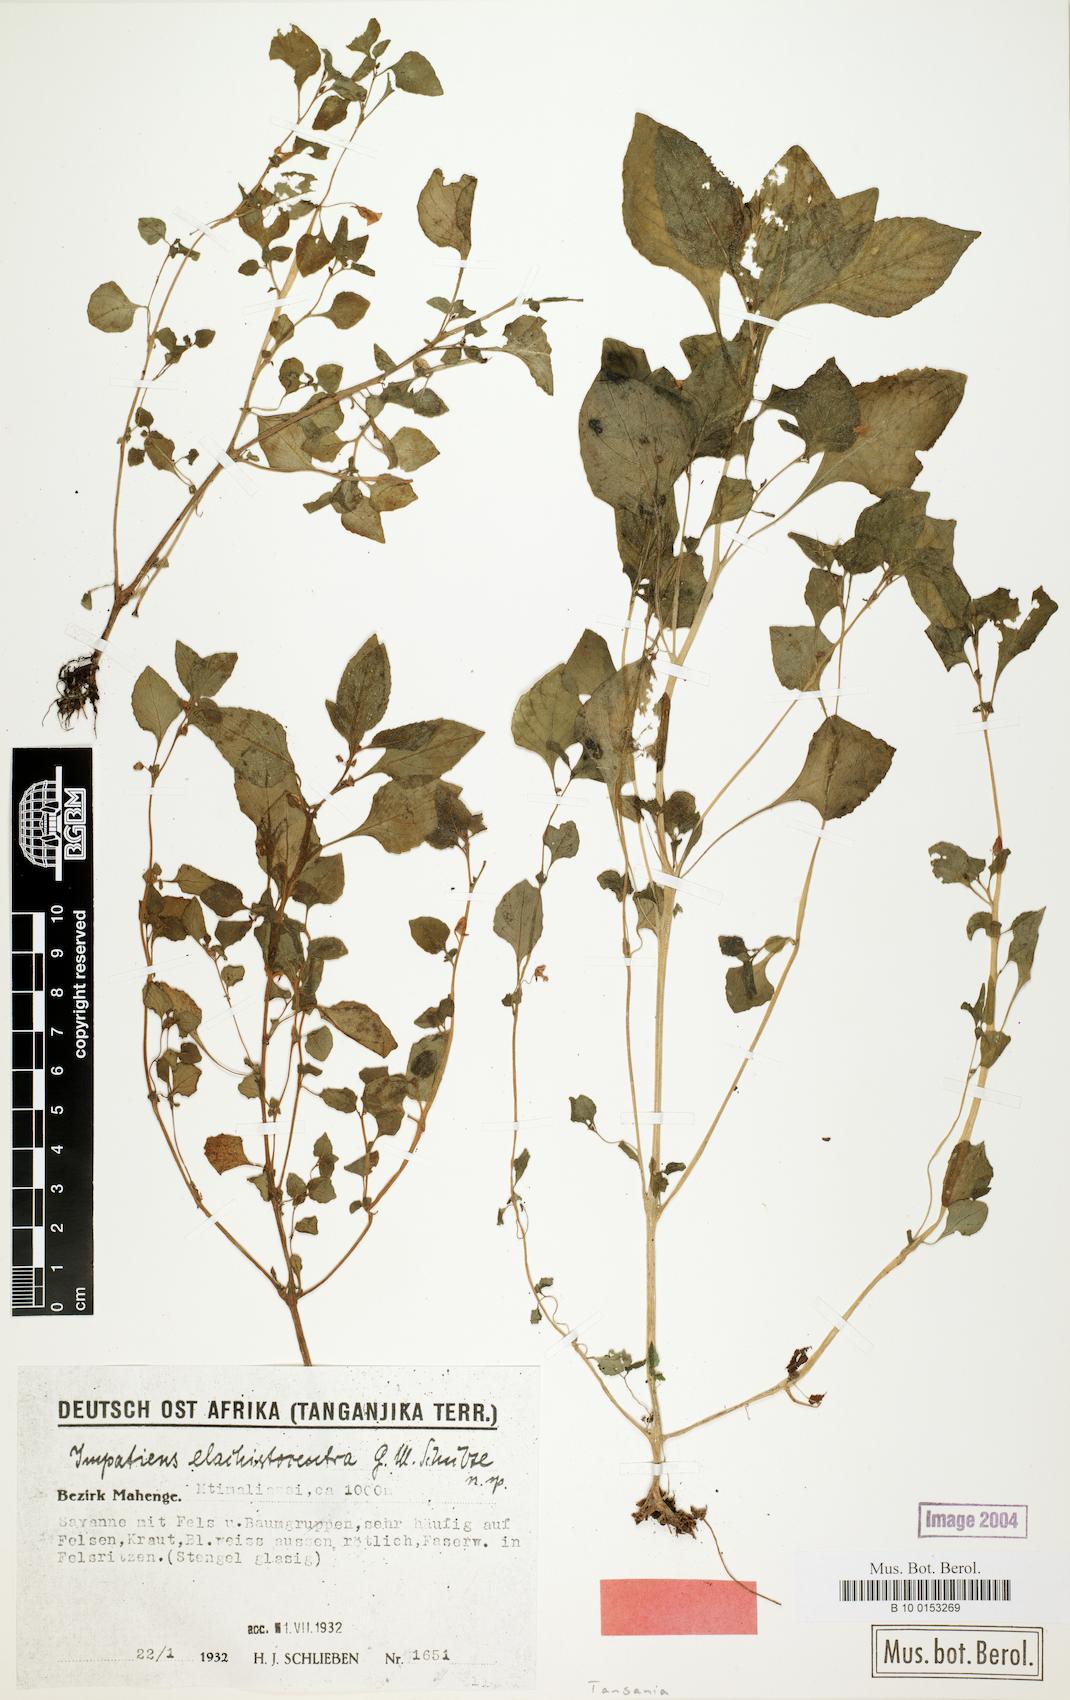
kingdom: Plantae
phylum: Tracheophyta
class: Magnoliopsida
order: Ericales
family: Balsaminaceae
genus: Impatiens
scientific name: Impatiens elachistocentra
